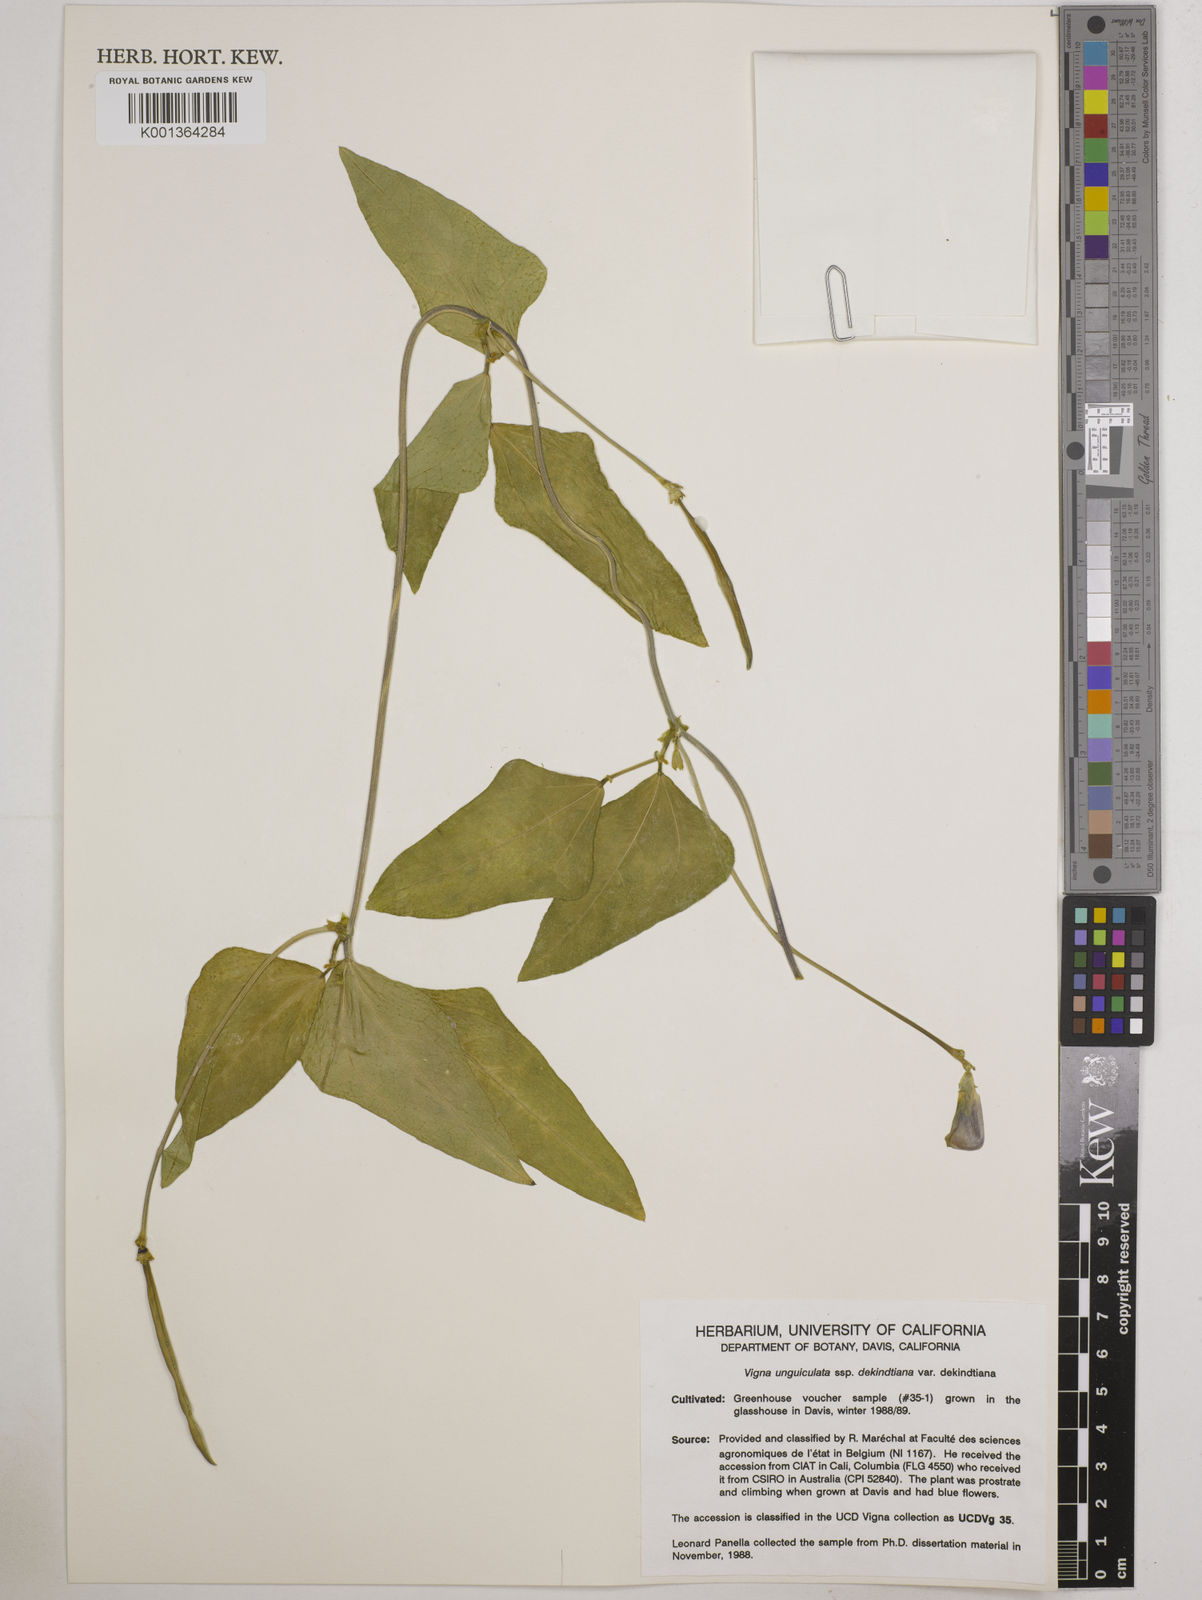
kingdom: Plantae
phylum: Tracheophyta
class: Magnoliopsida
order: Fabales
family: Fabaceae
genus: Vigna
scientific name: Vigna
